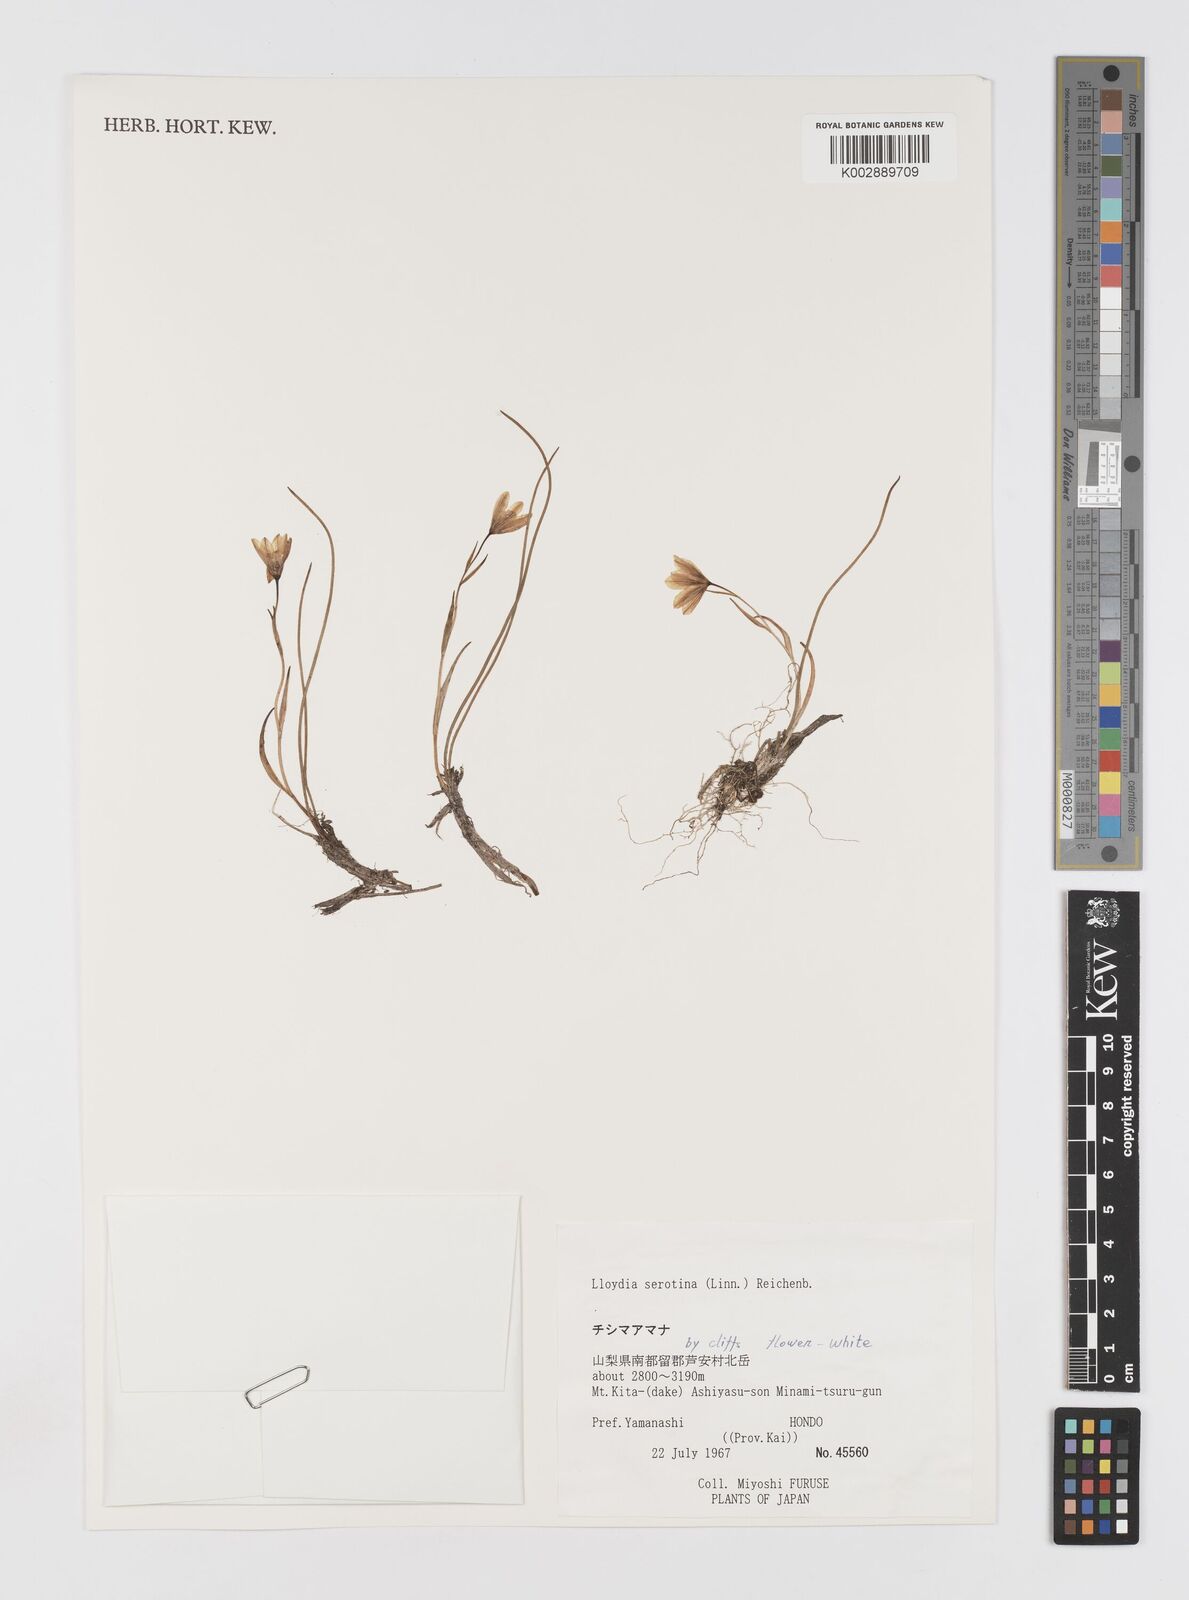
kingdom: Plantae
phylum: Tracheophyta
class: Liliopsida
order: Liliales
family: Liliaceae
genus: Gagea
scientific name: Gagea serotina
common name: Snowdon lily
